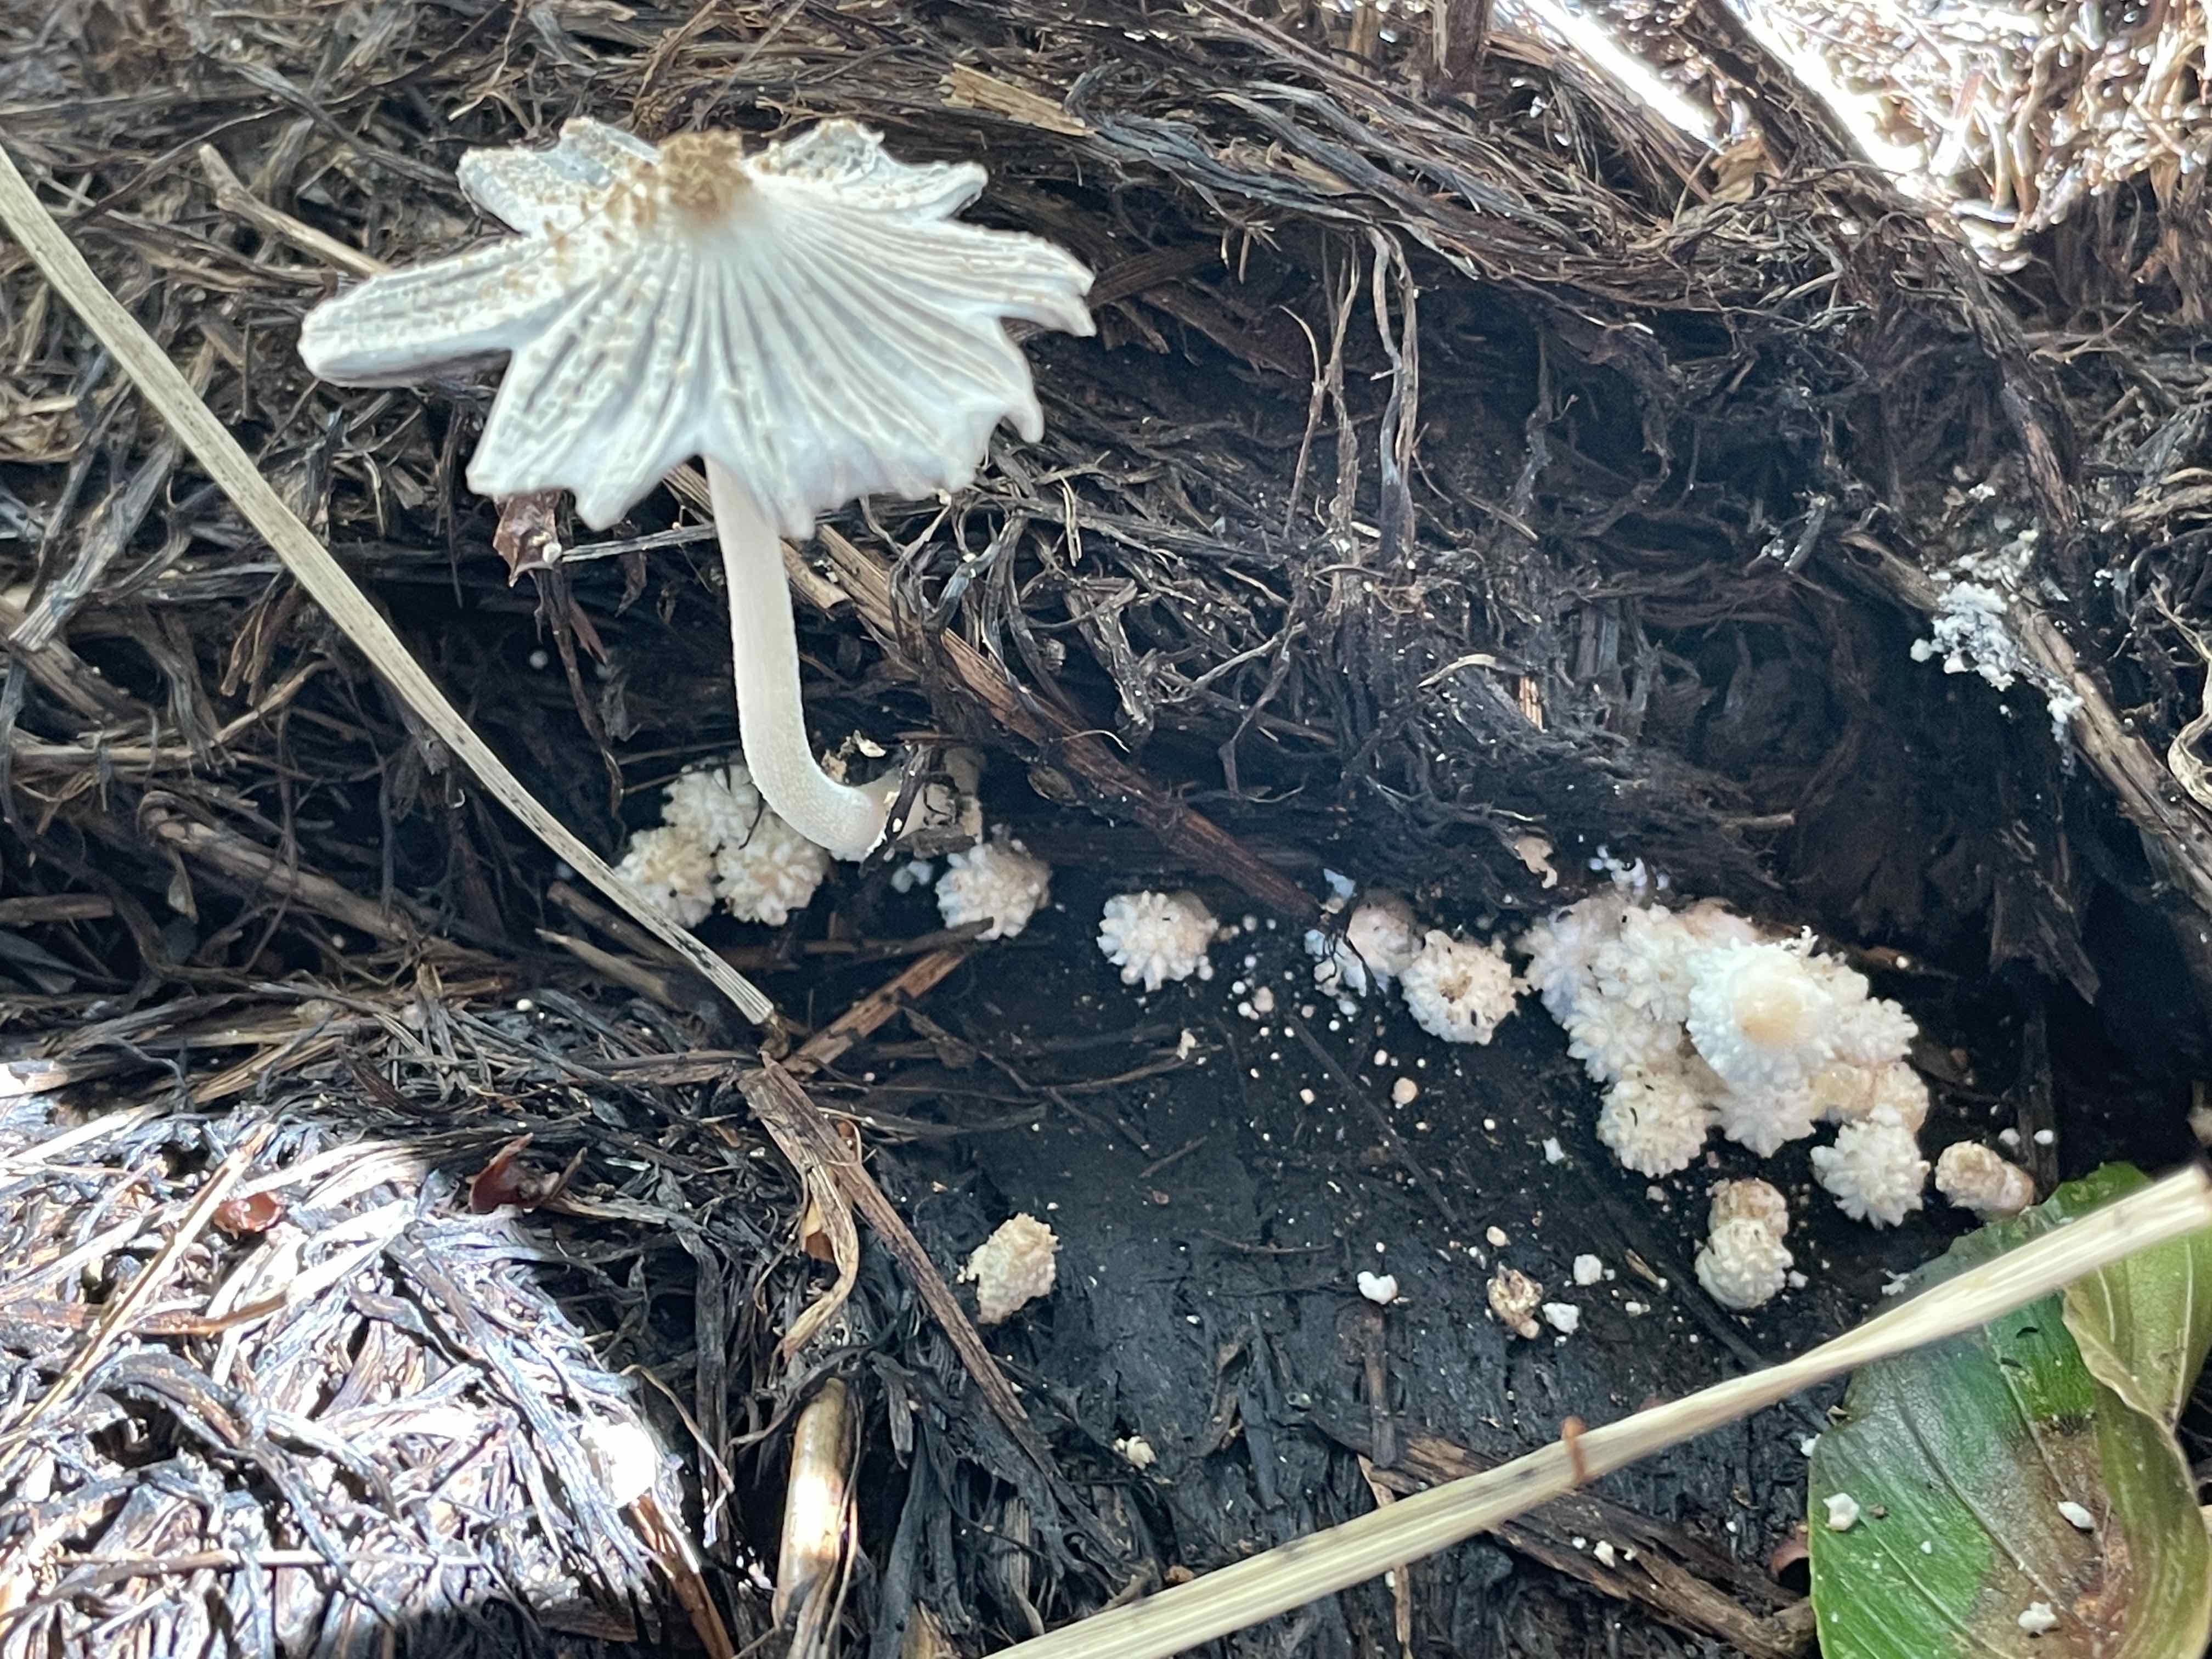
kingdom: Fungi
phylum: Basidiomycota
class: Agaricomycetes
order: Agaricales
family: Psathyrellaceae
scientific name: Psathyrellaceae
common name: mørkhatfamilien
